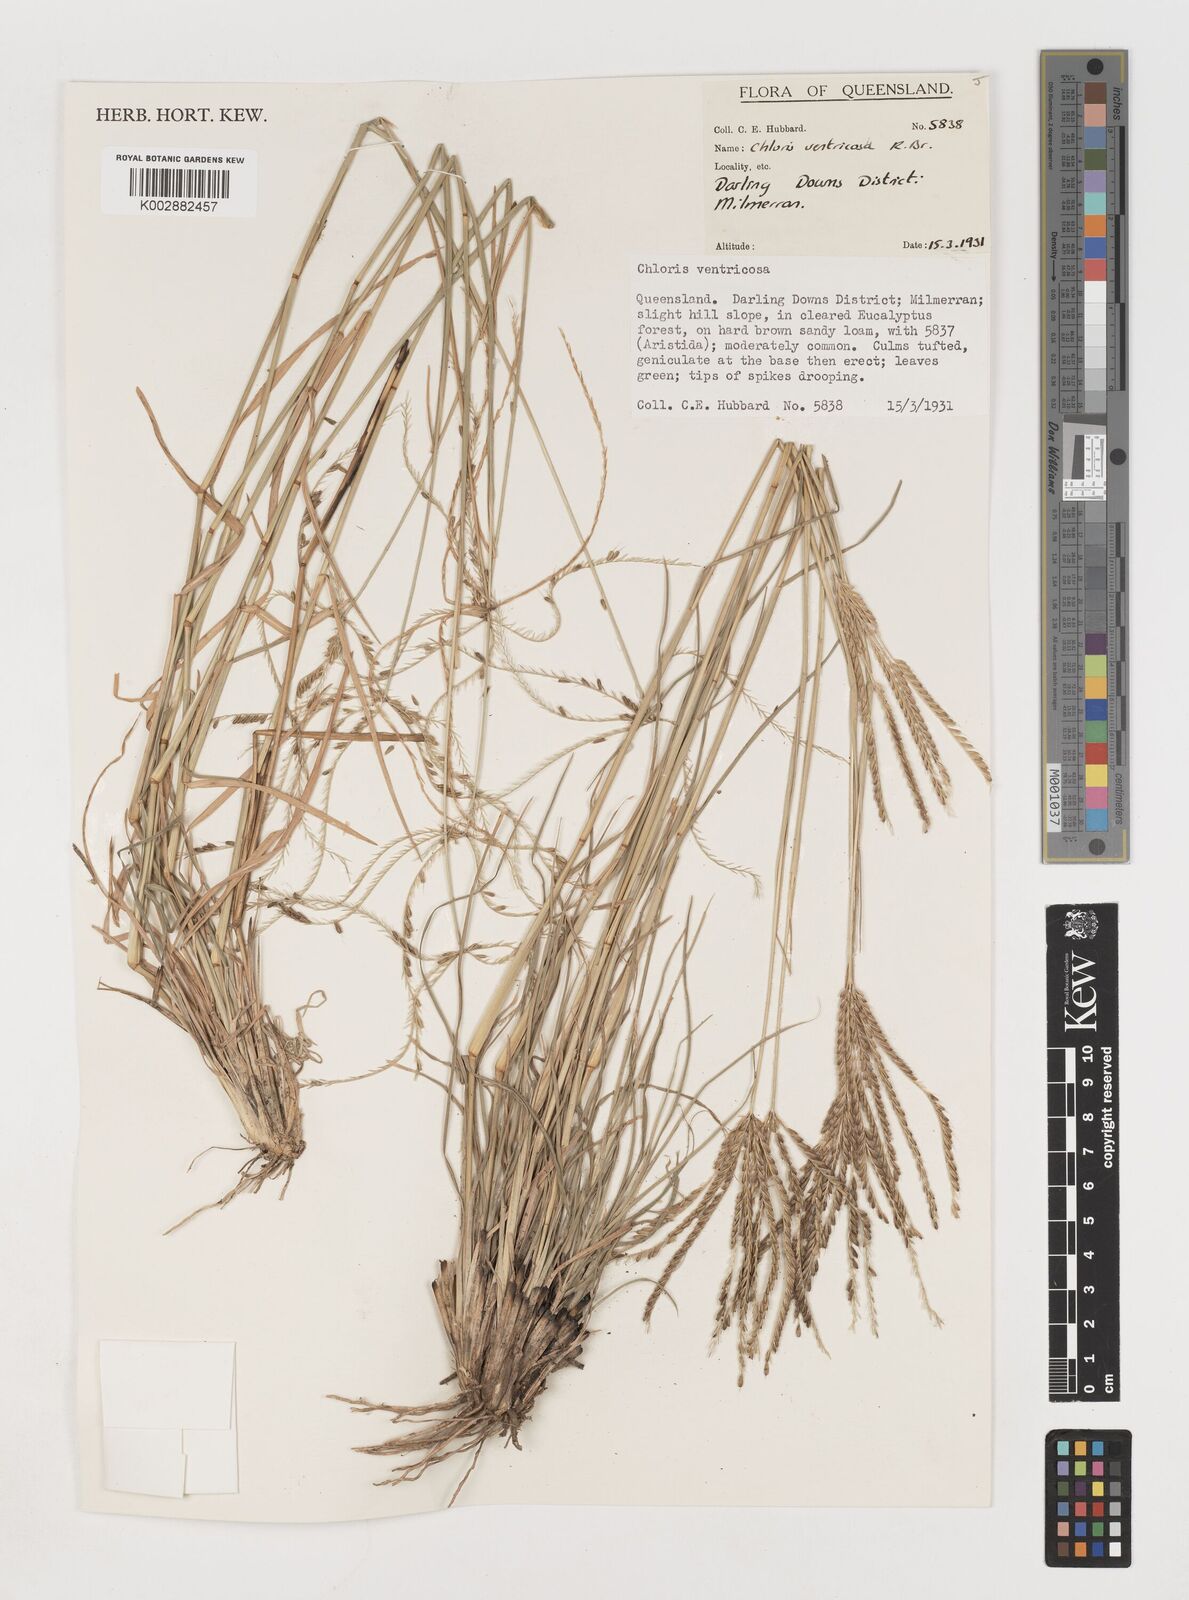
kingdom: Plantae
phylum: Tracheophyta
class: Liliopsida
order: Poales
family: Poaceae
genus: Chloris
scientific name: Chloris ventricosa
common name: Australian windmill grass
